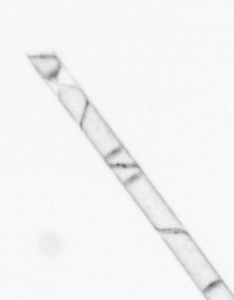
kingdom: Chromista
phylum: Ochrophyta
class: Bacillariophyceae
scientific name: Bacillariophyceae
